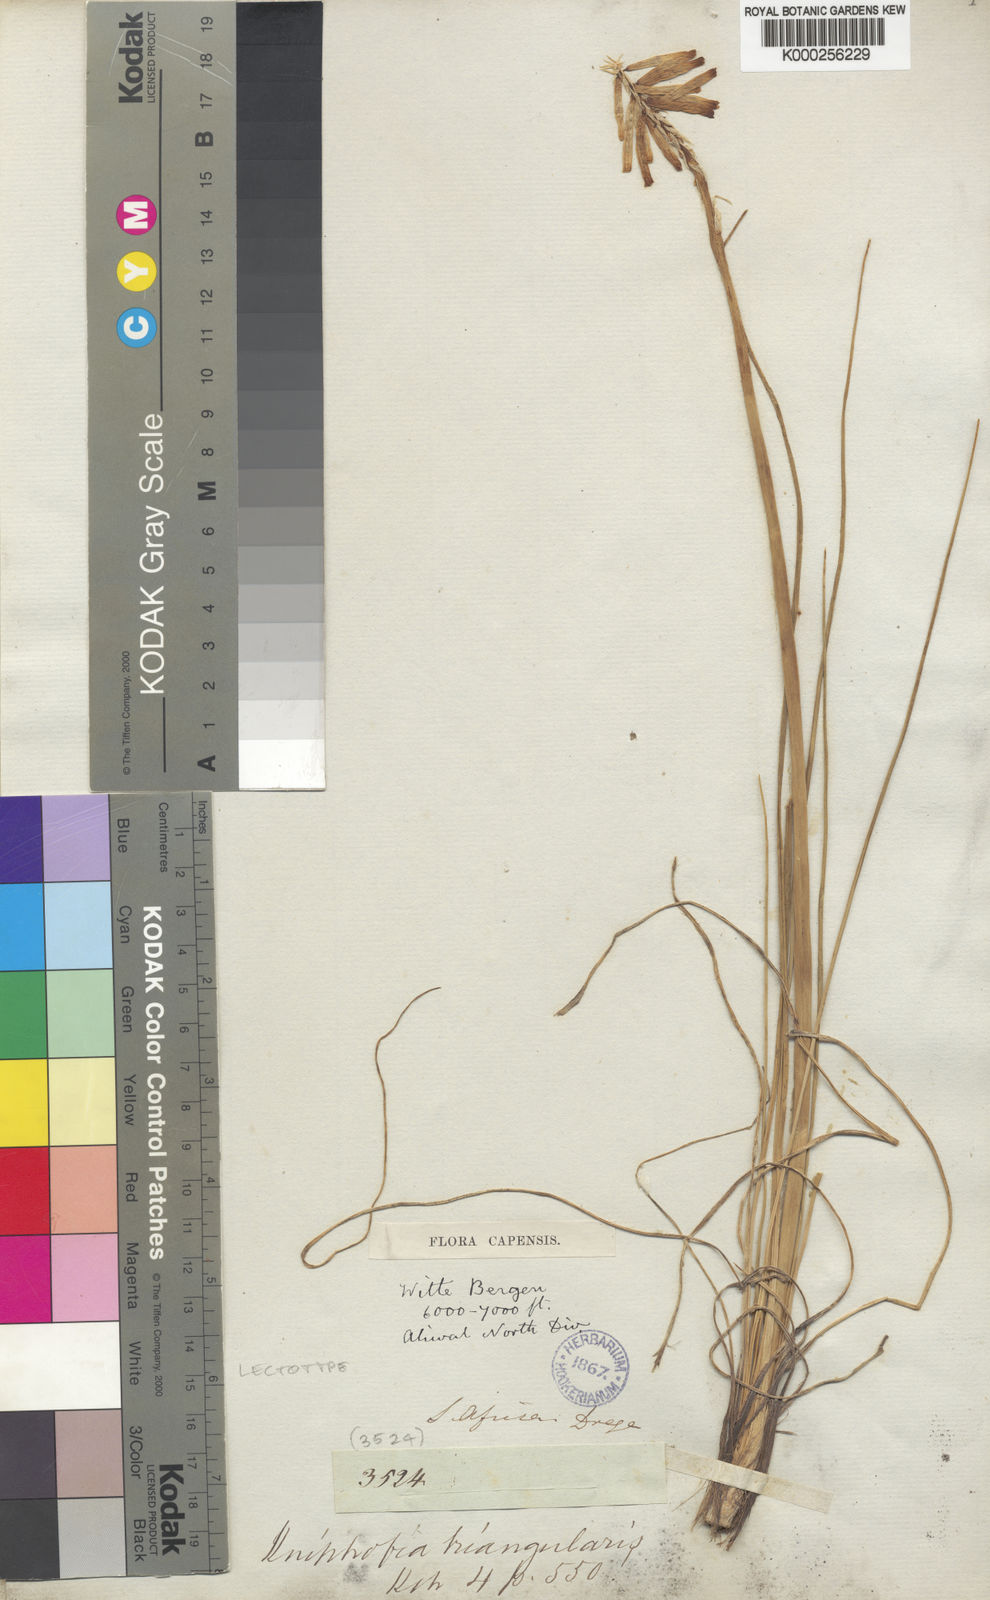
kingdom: Plantae
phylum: Tracheophyta
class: Liliopsida
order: Asparagales
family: Asphodelaceae
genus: Kniphofia
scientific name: Kniphofia triangularis
